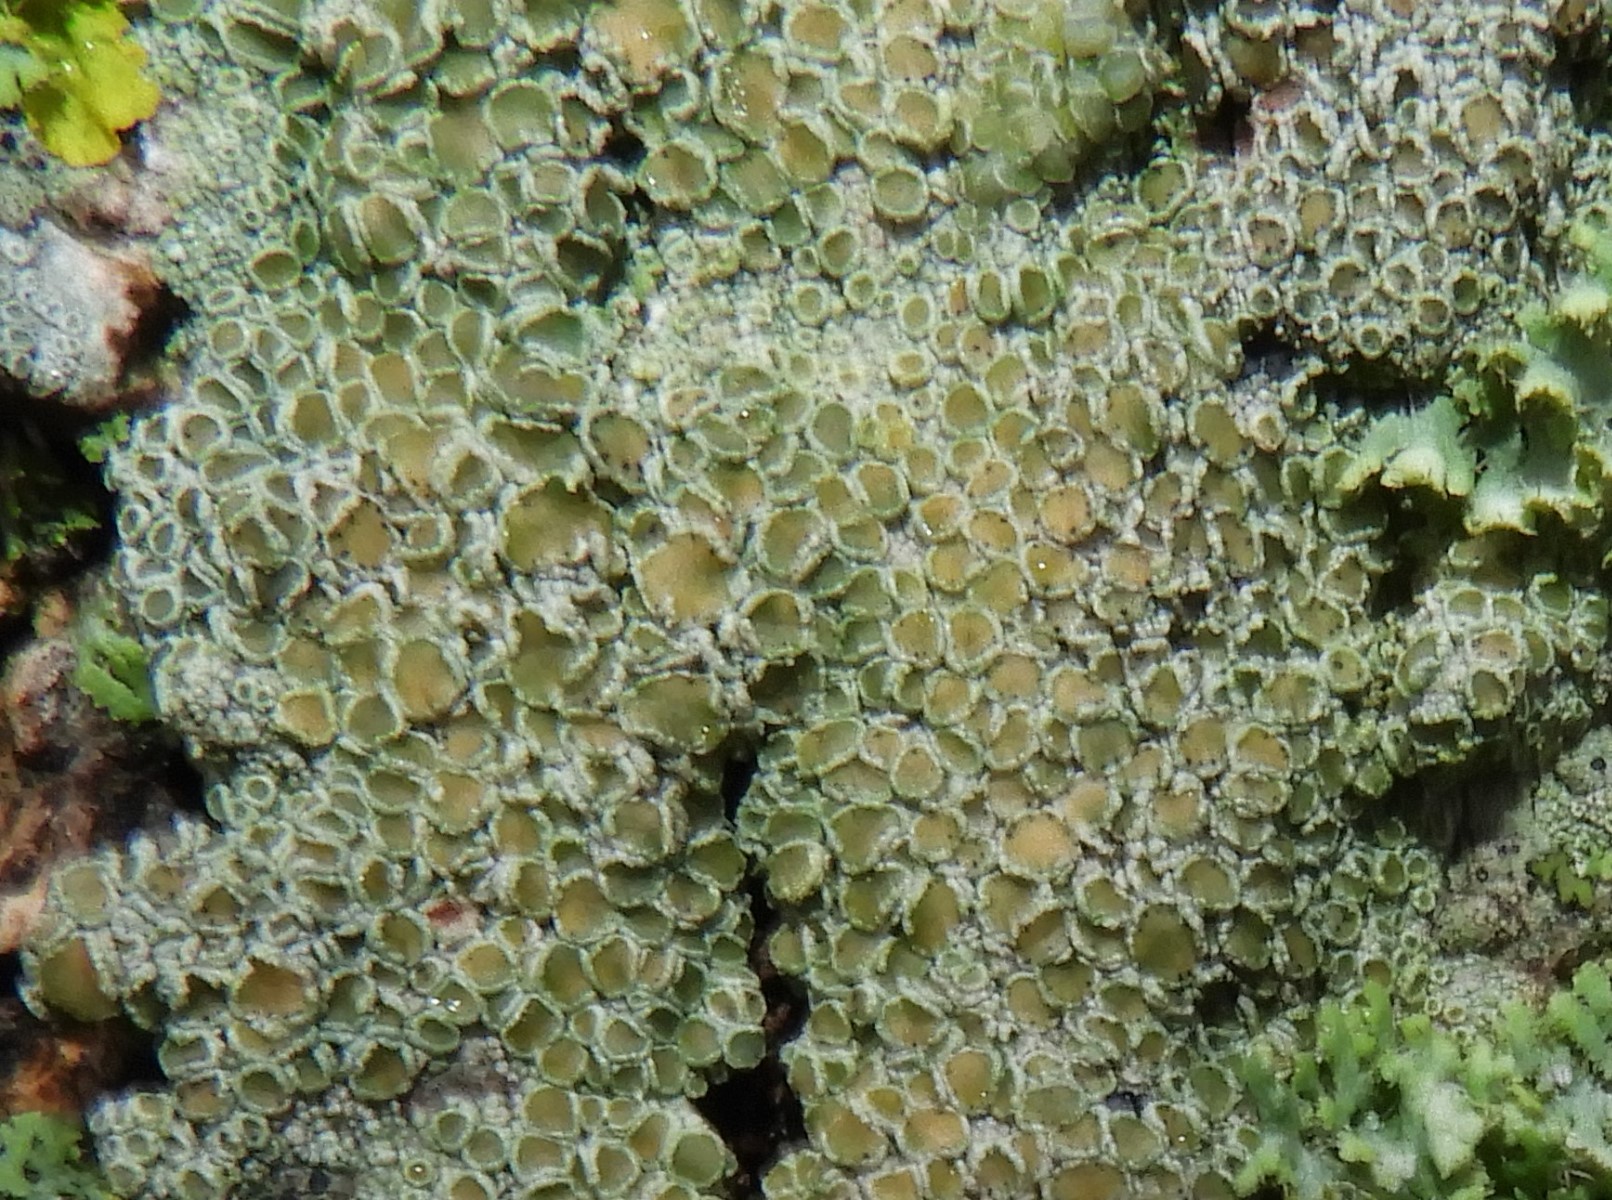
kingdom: Fungi
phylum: Ascomycota
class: Lecanoromycetes
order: Lecanorales
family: Lecanoraceae
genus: Lecanora
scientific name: Lecanora chlarotera
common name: brun kantskivelav
